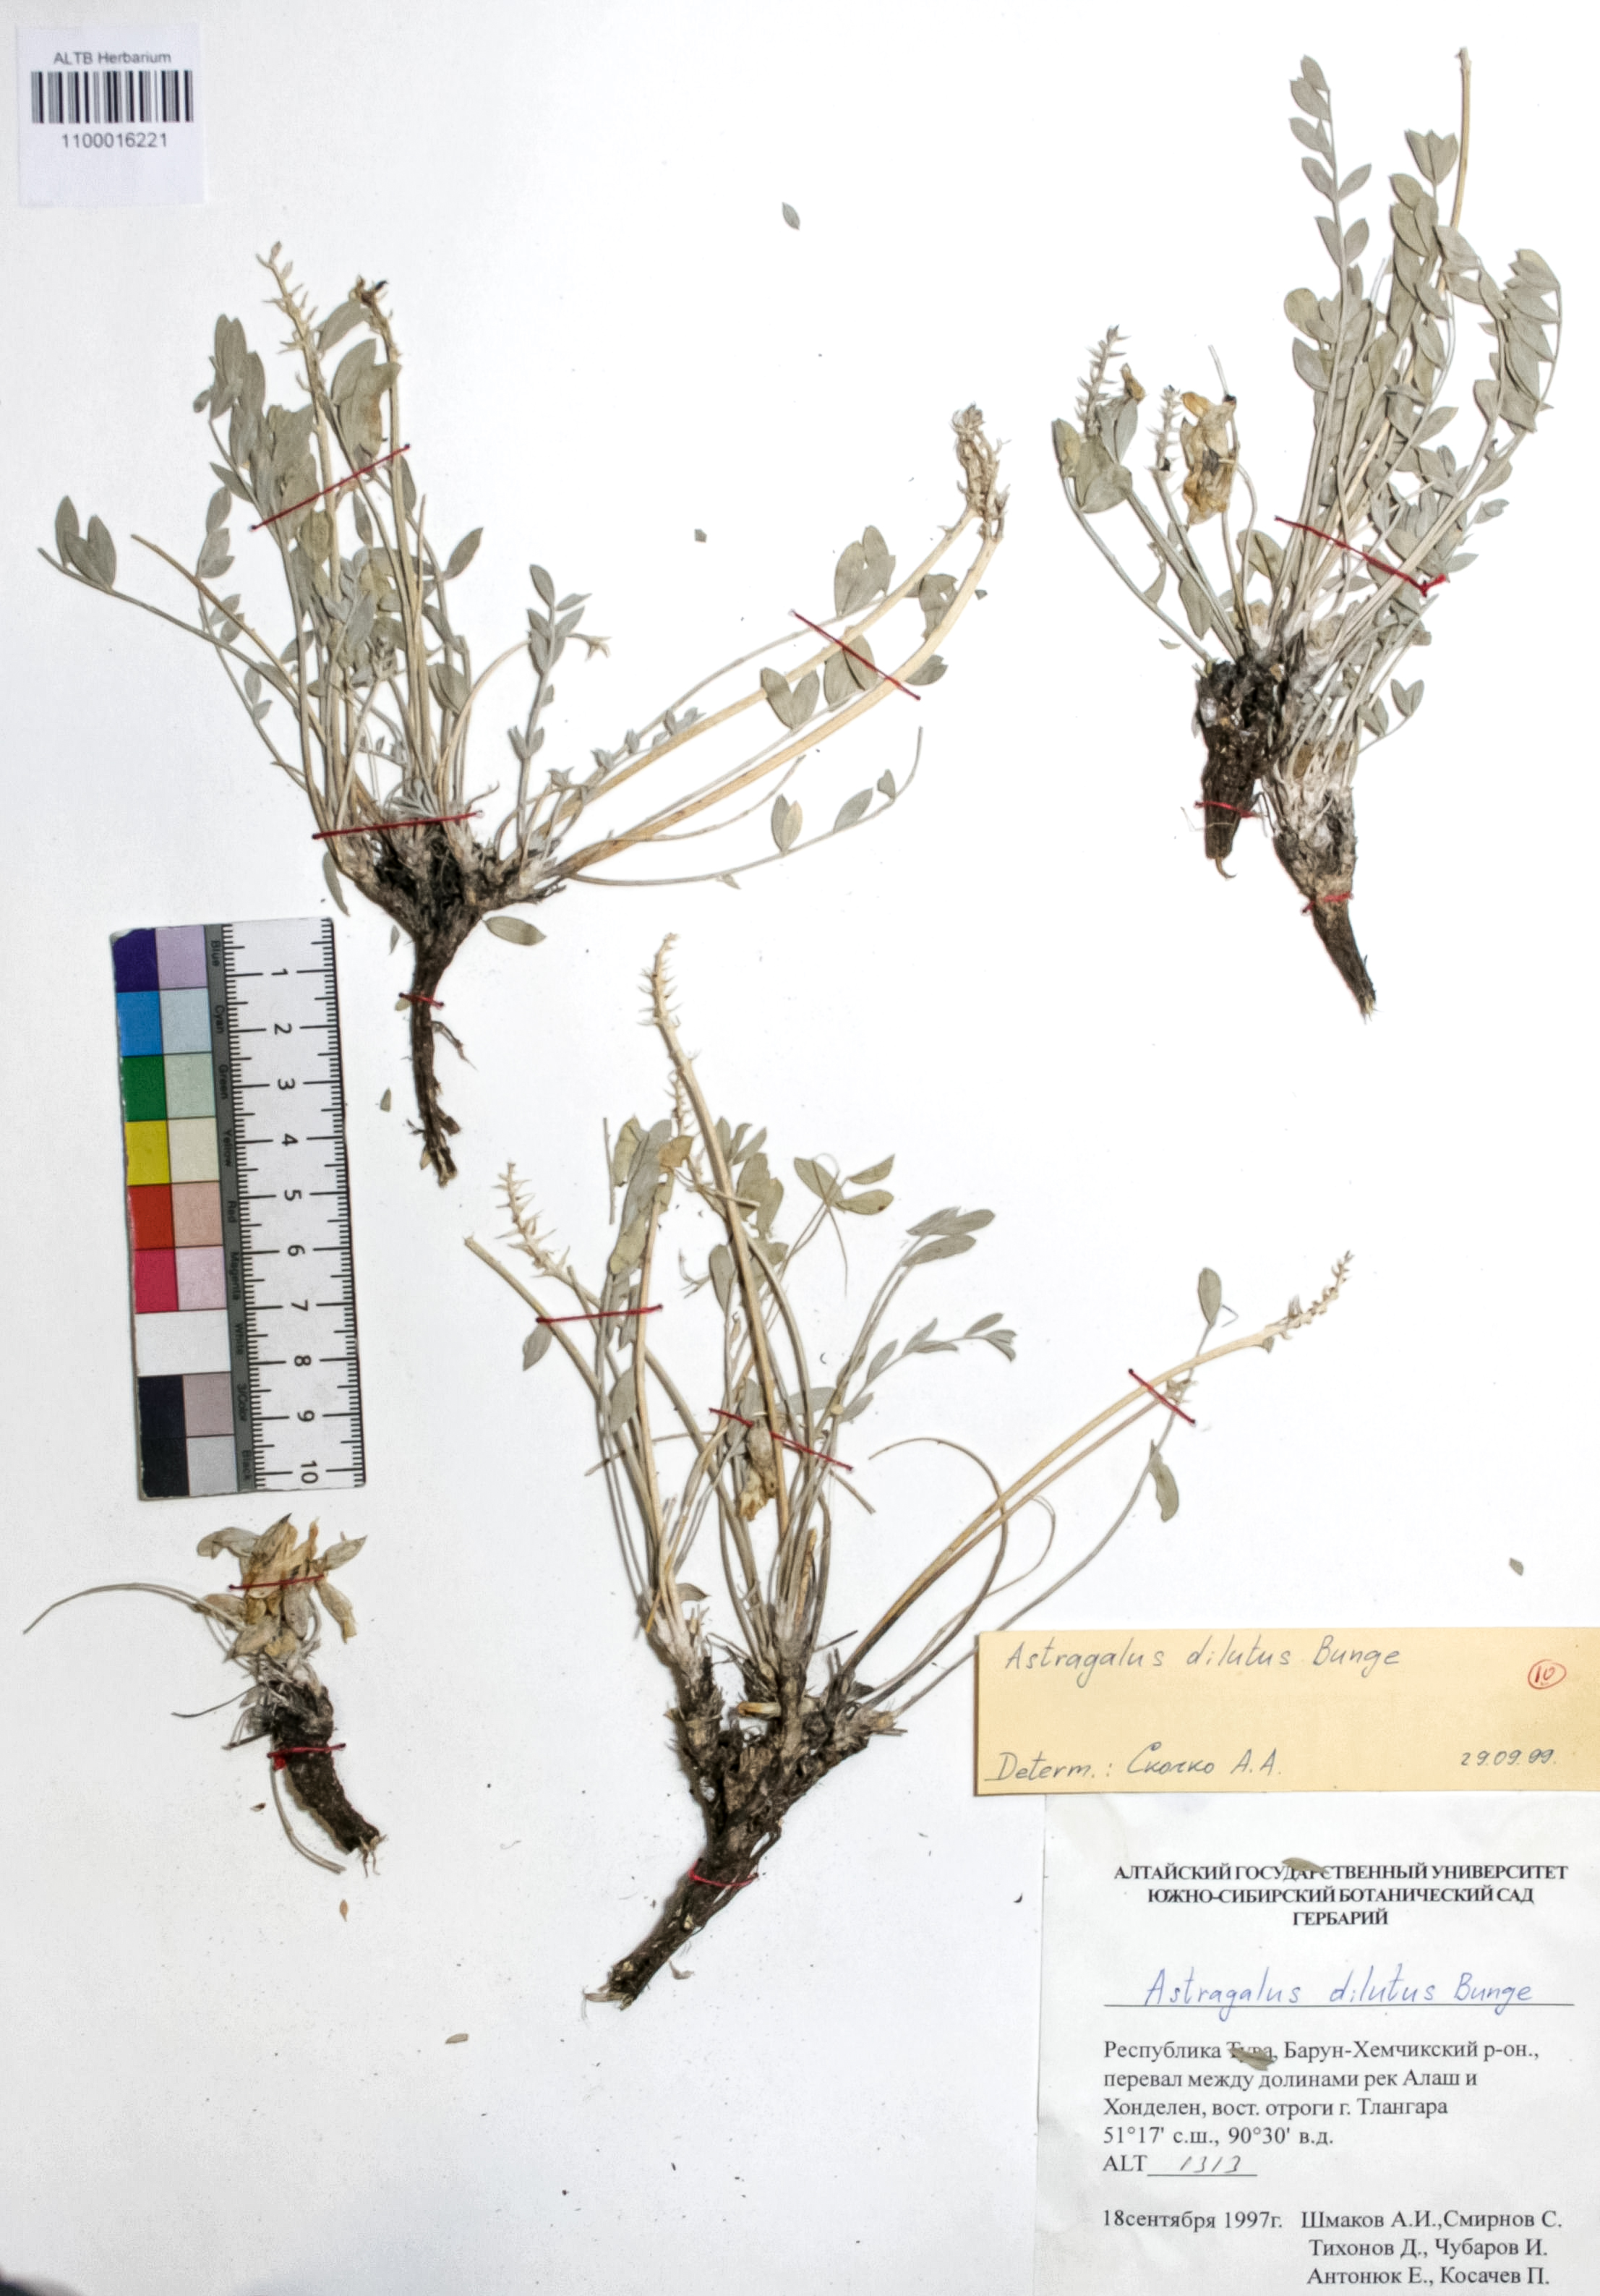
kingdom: Plantae
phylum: Tracheophyta
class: Magnoliopsida
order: Fabales
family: Fabaceae
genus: Astragalus
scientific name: Astragalus dilutus
